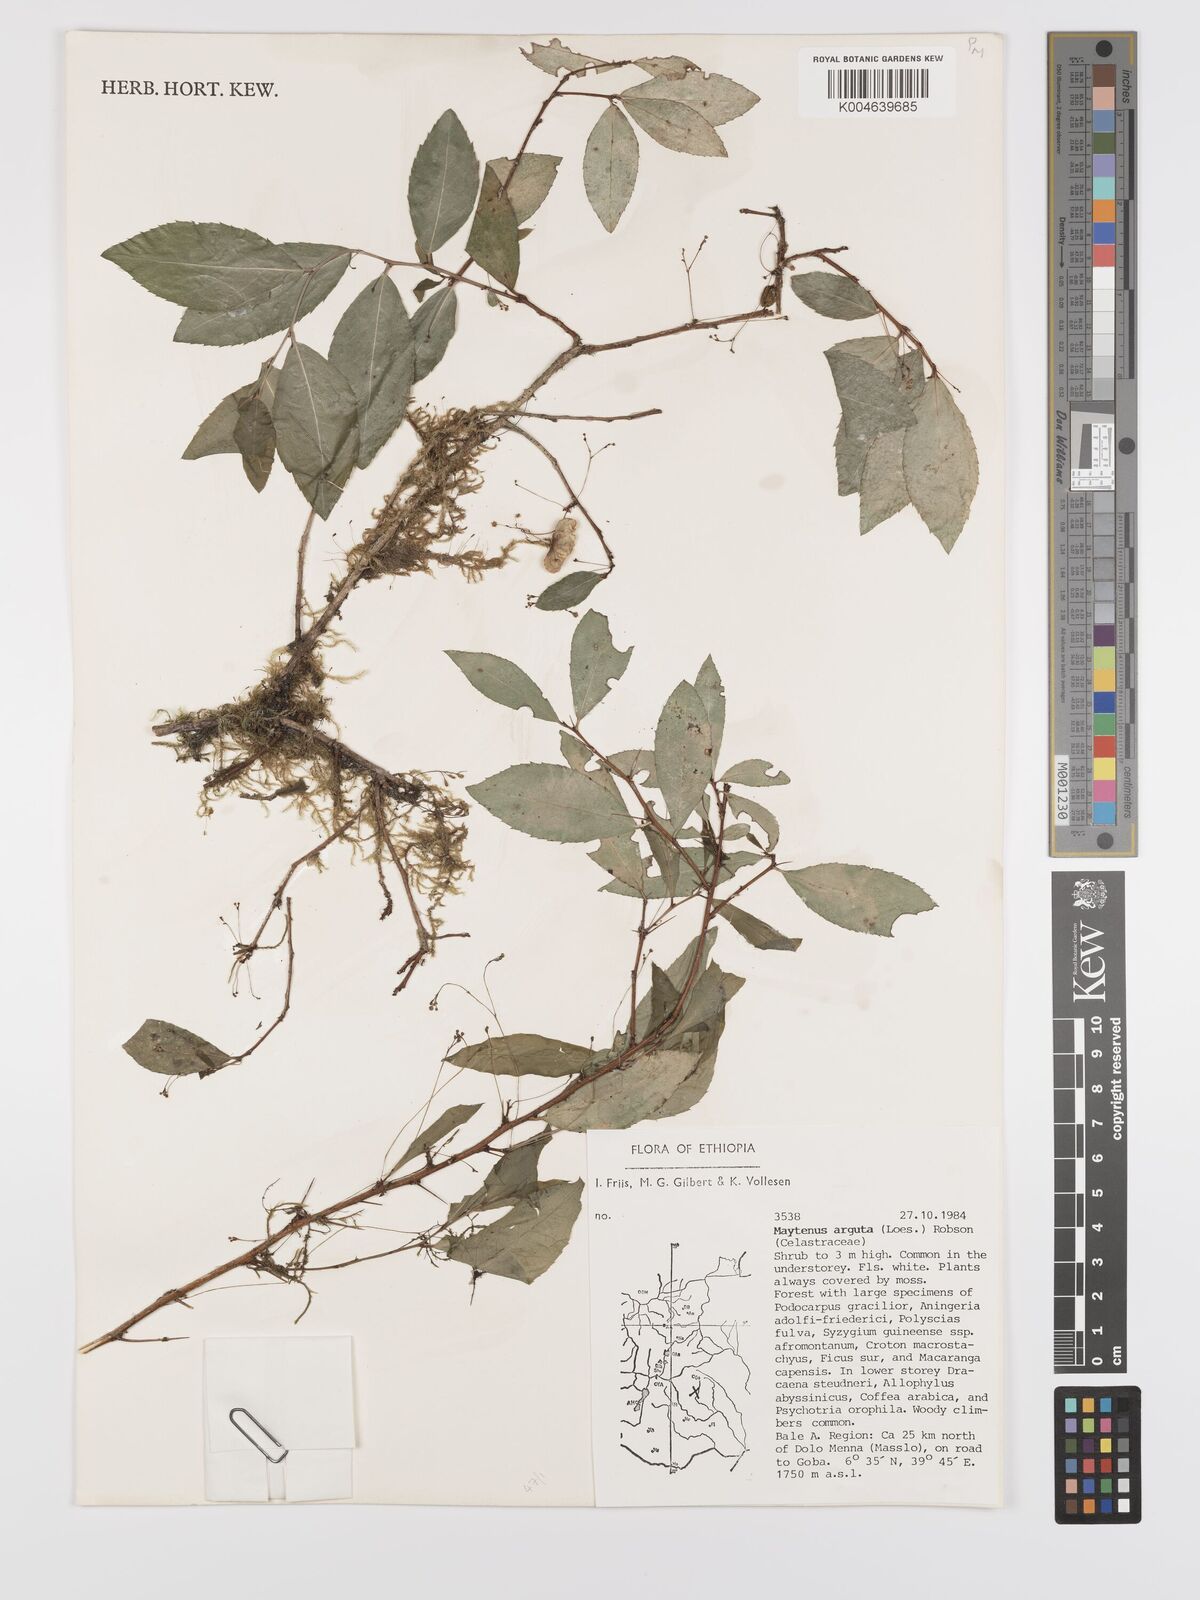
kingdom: Plantae
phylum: Tracheophyta
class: Magnoliopsida
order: Celastrales
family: Celastraceae
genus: Gymnosporia
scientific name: Gymnosporia gracilipes
